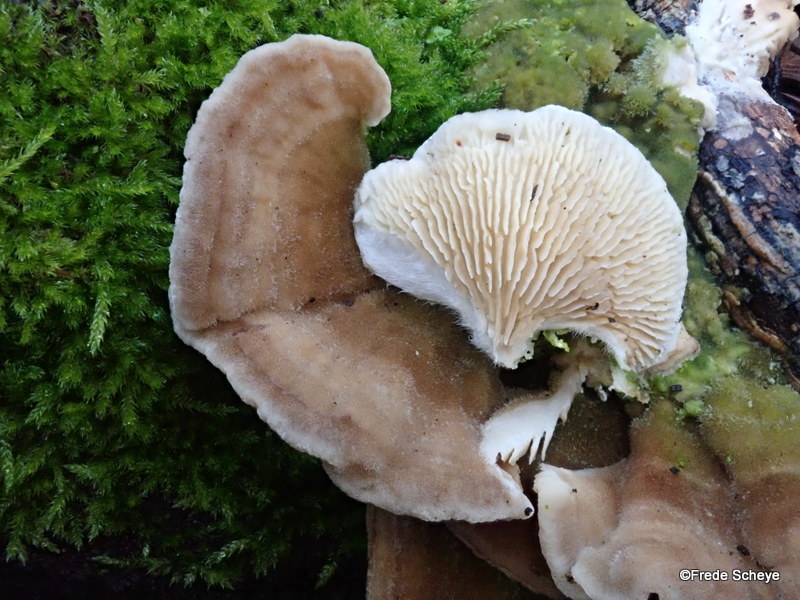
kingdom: Fungi
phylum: Basidiomycota
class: Agaricomycetes
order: Polyporales
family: Polyporaceae
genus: Lenzites
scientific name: Lenzites betulinus
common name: birke-læderporesvamp
